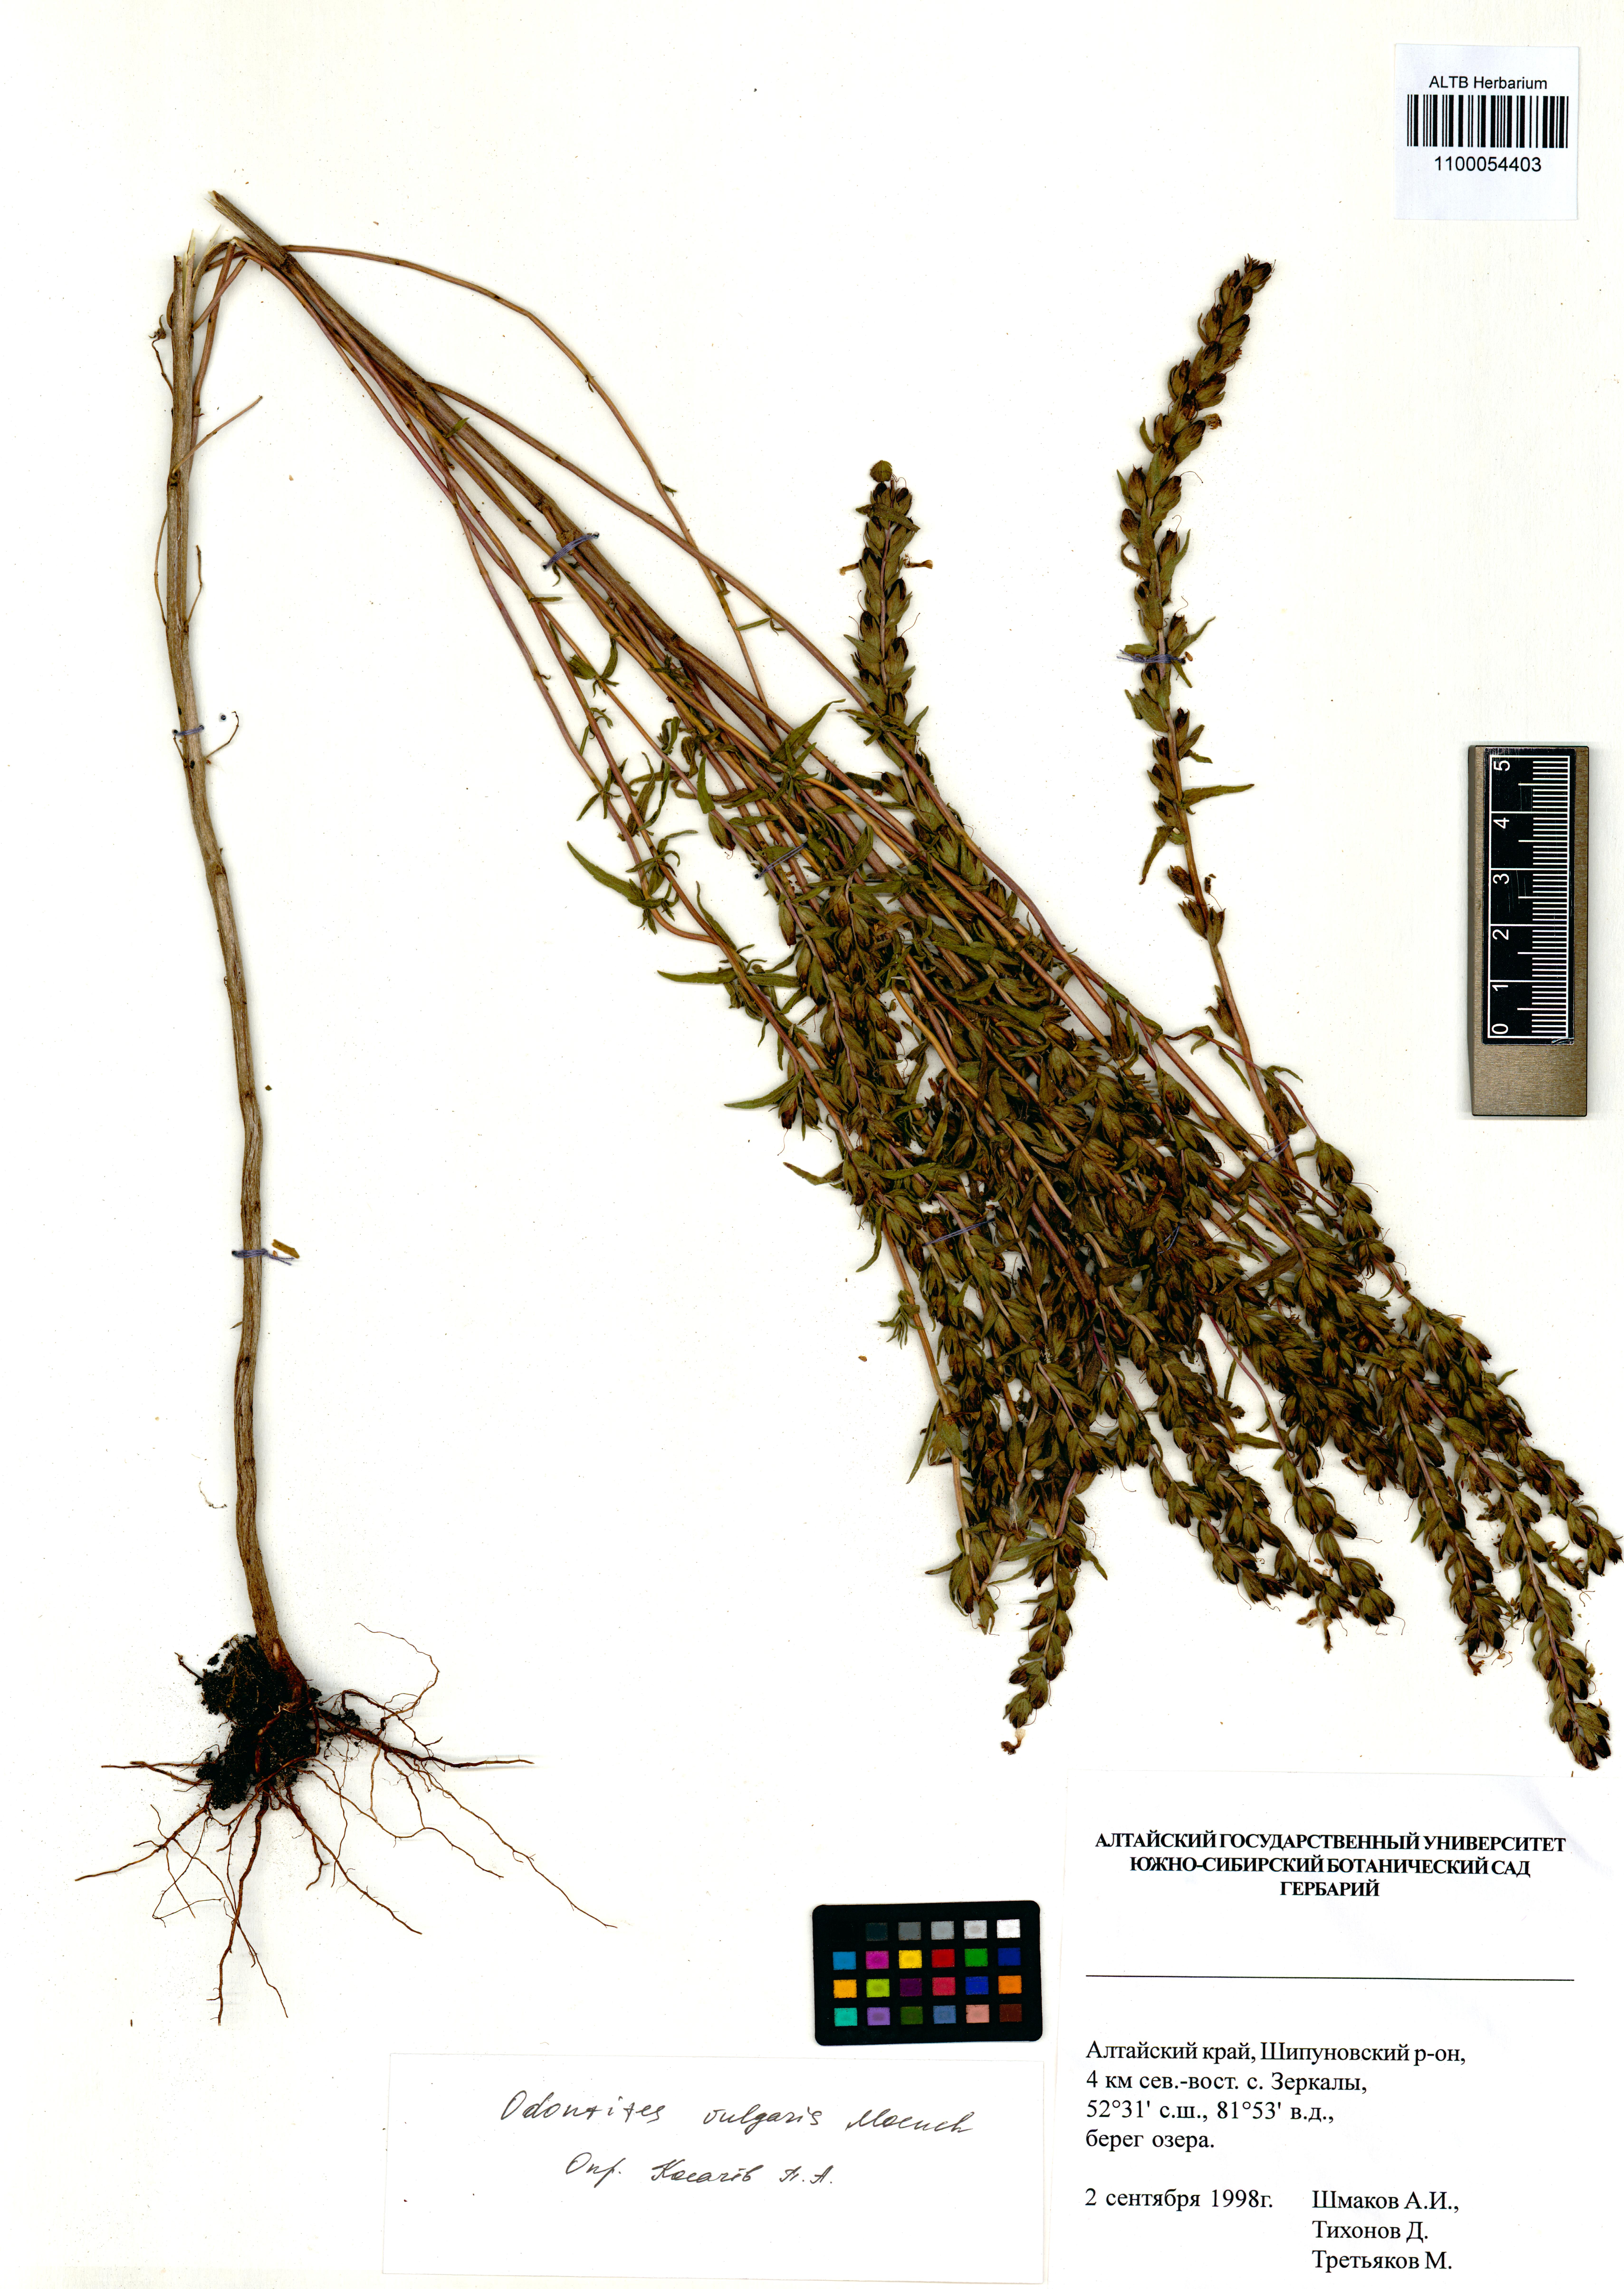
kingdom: Plantae
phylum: Tracheophyta
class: Magnoliopsida
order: Lamiales
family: Orobanchaceae
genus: Odontites
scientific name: Odontites vulgaris
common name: Broomrape
